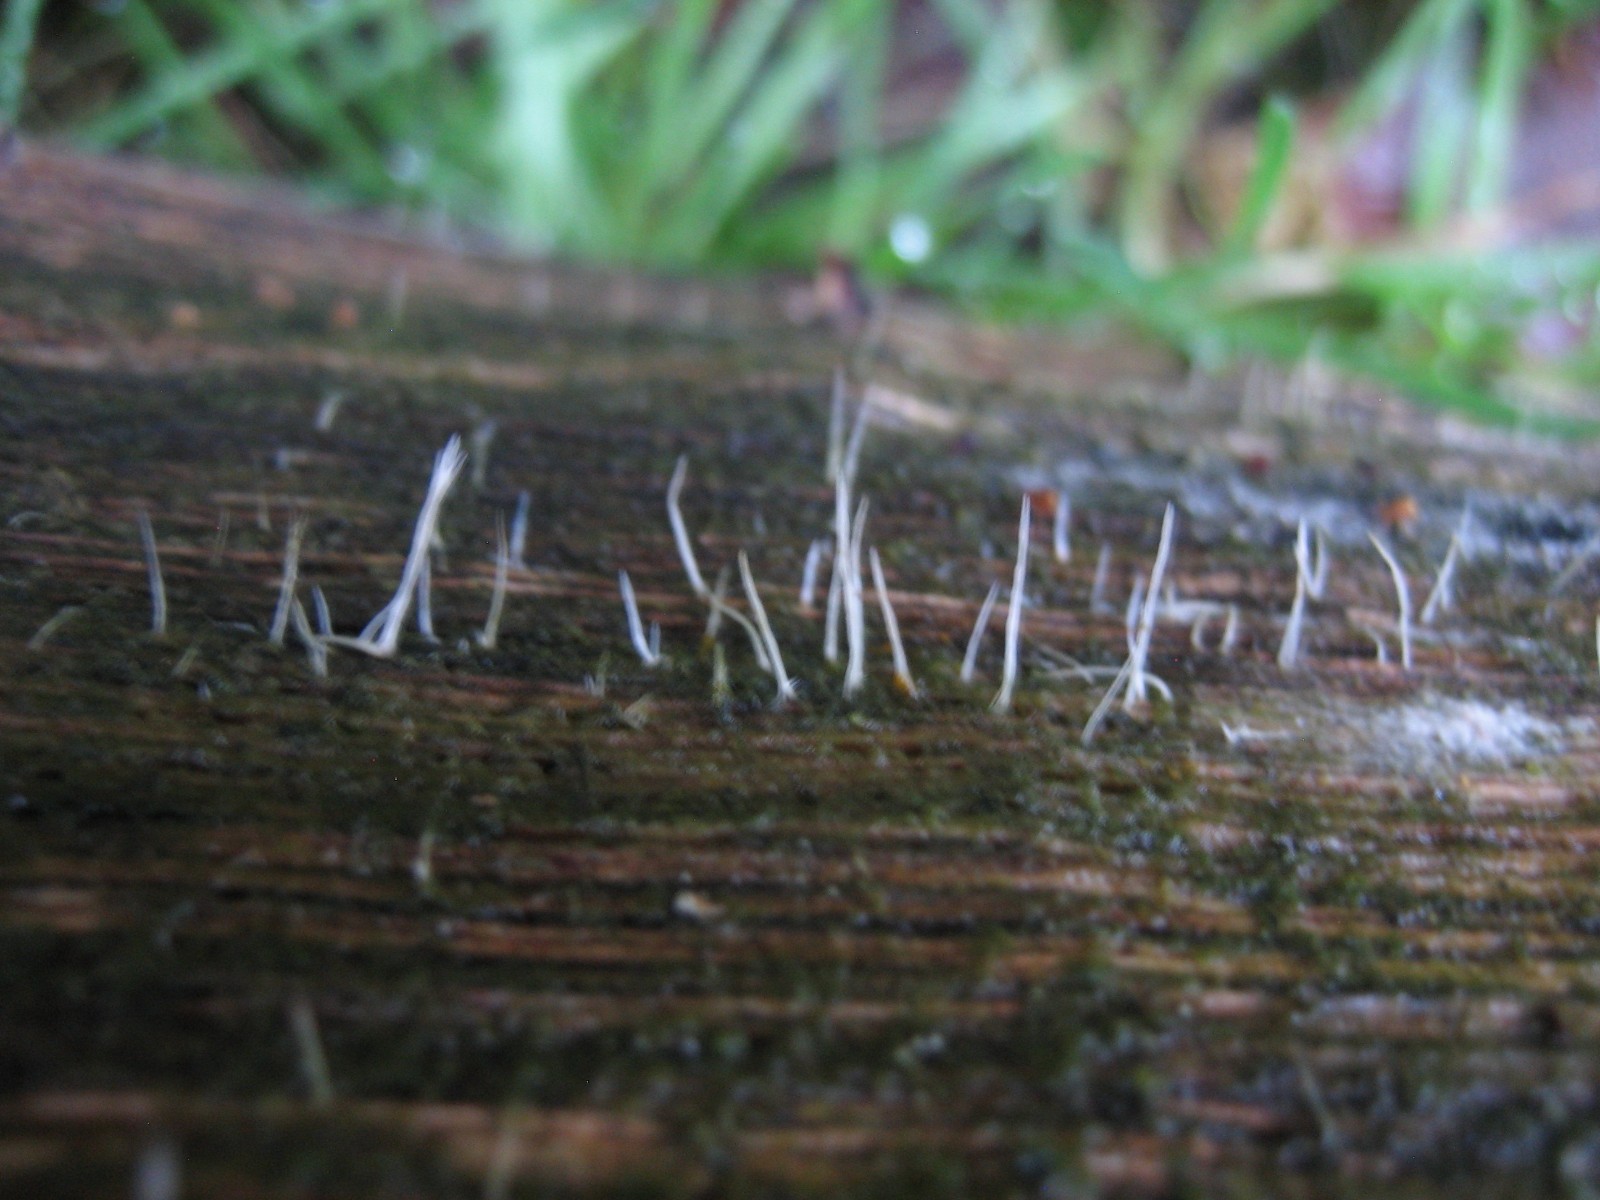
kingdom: Fungi
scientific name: Fungi
